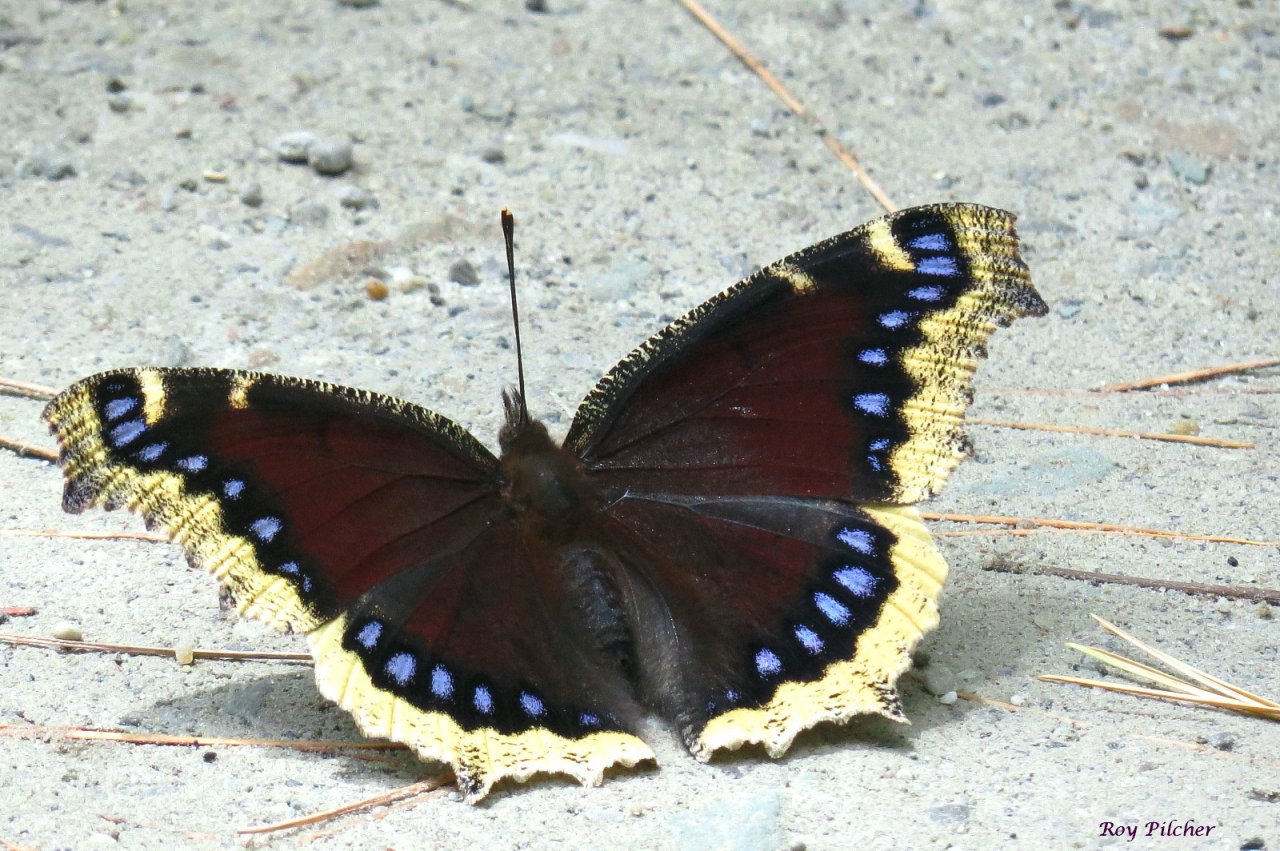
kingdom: Animalia
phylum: Arthropoda
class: Insecta
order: Lepidoptera
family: Nymphalidae
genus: Nymphalis
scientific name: Nymphalis antiopa
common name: Mourning Cloak
